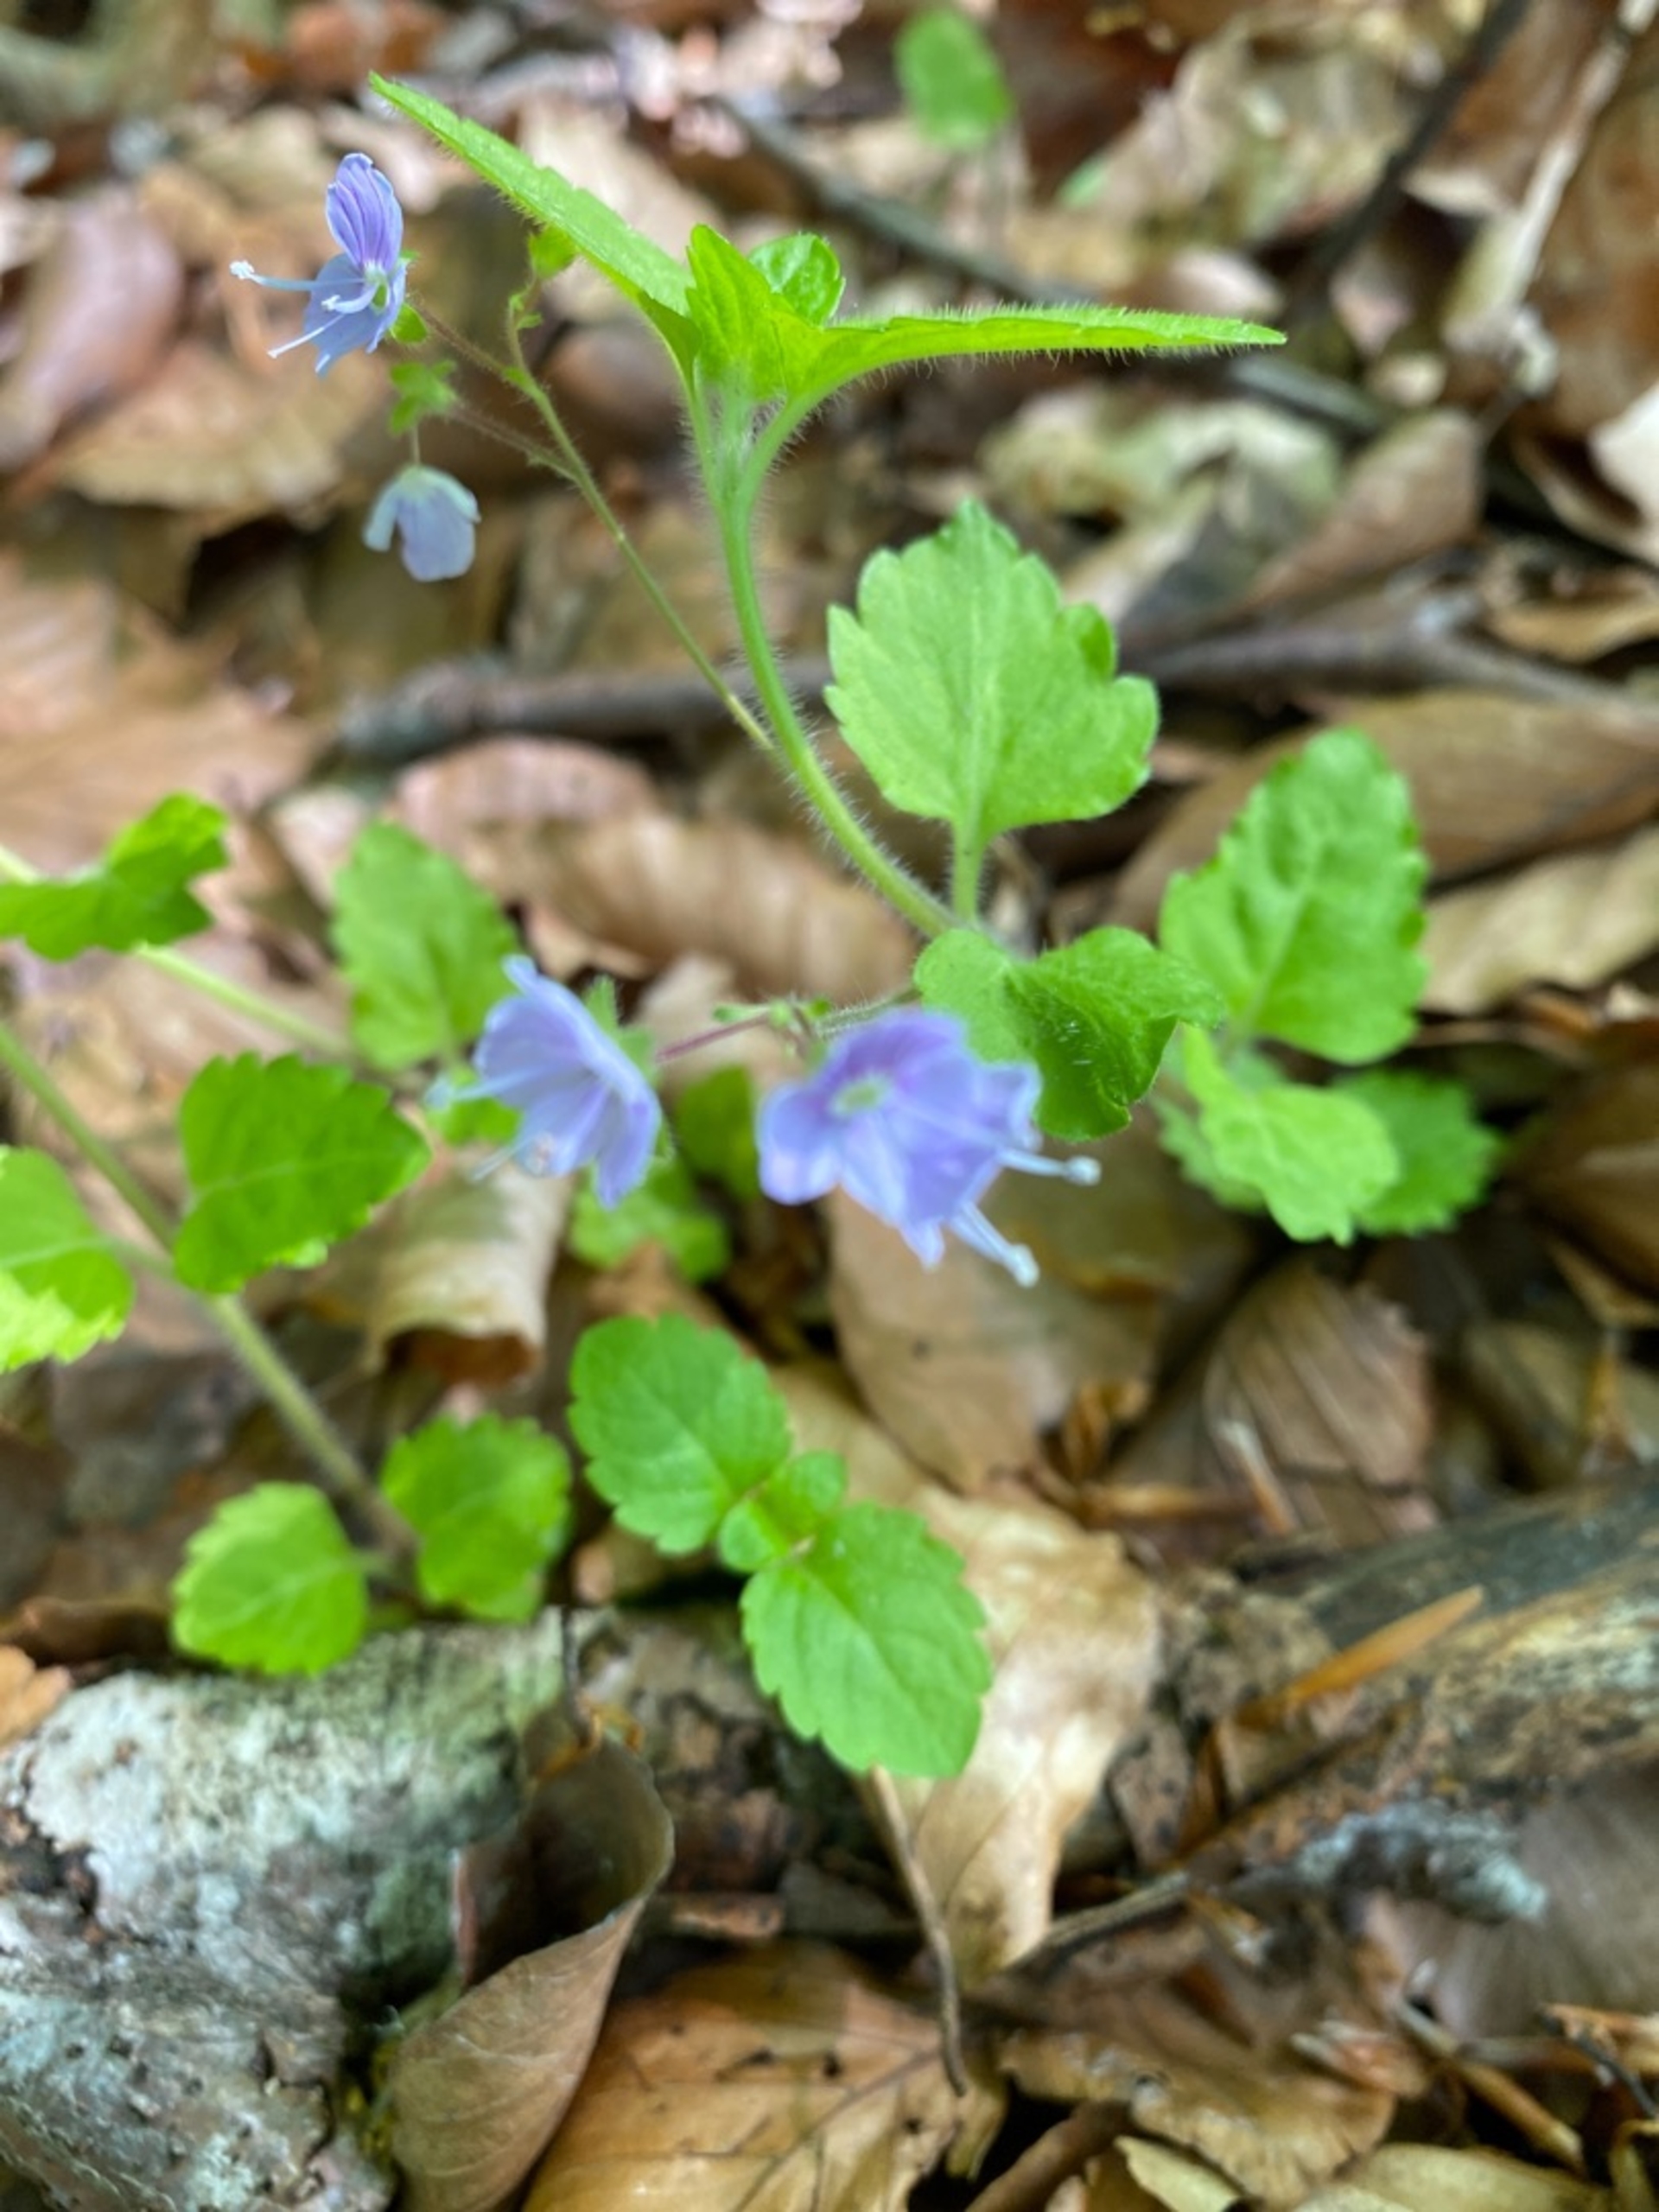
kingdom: Plantae
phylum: Tracheophyta
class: Magnoliopsida
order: Lamiales
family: Plantaginaceae
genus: Veronica
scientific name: Veronica montana
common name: Bjerg-ærenpris
